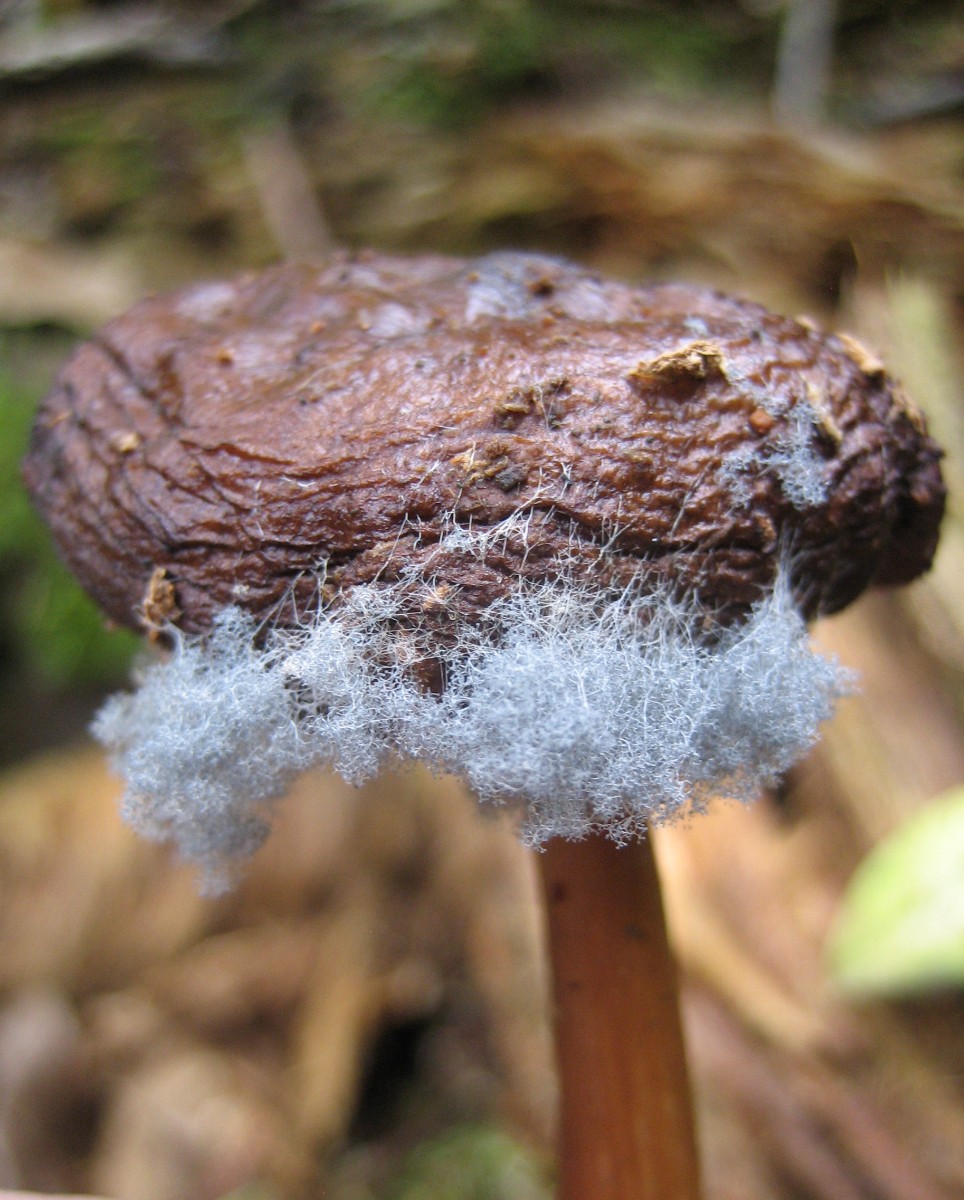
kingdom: Fungi
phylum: Mucoromycota
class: Mucoromycetes
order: Mucorales
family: Rhizopodaceae
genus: Syzygites
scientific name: Syzygites megalocarpus
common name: nissenål
